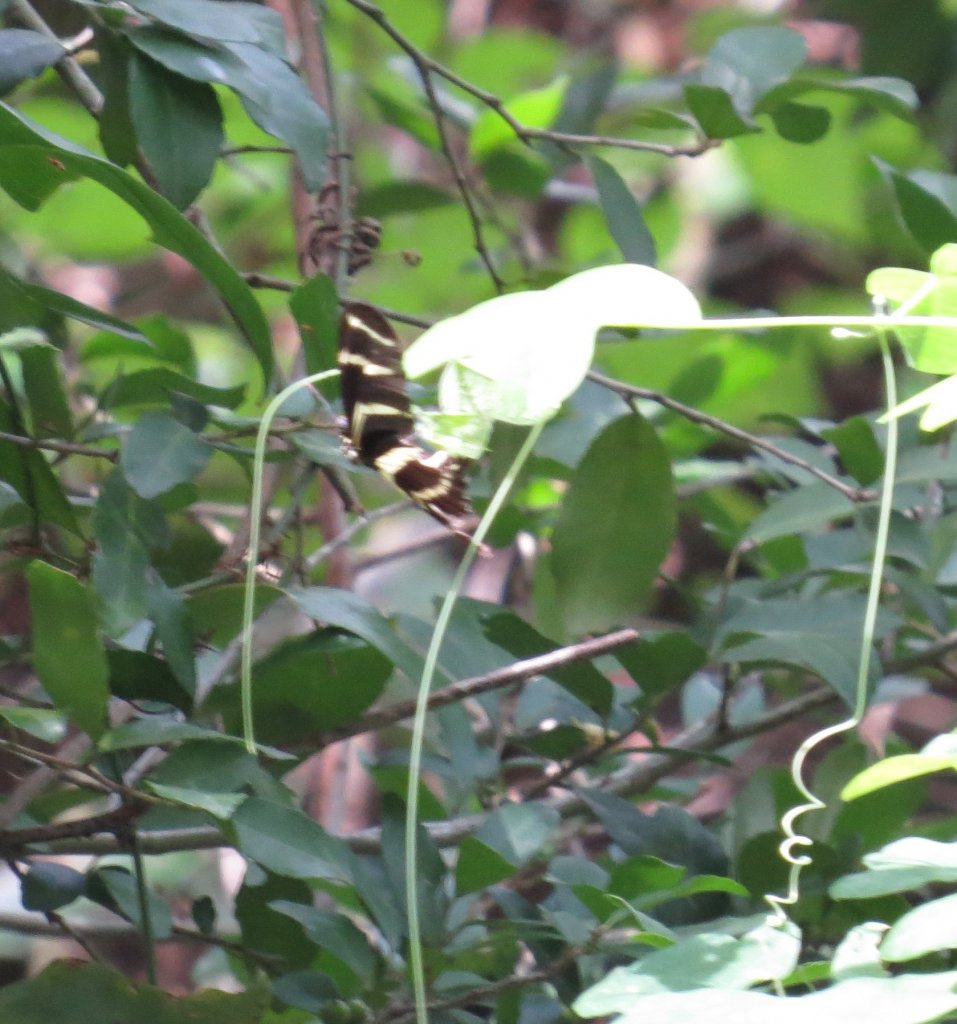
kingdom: Animalia
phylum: Arthropoda
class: Insecta
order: Lepidoptera
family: Nymphalidae
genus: Heliconius
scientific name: Heliconius charithonia
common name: Zebra Longwing
